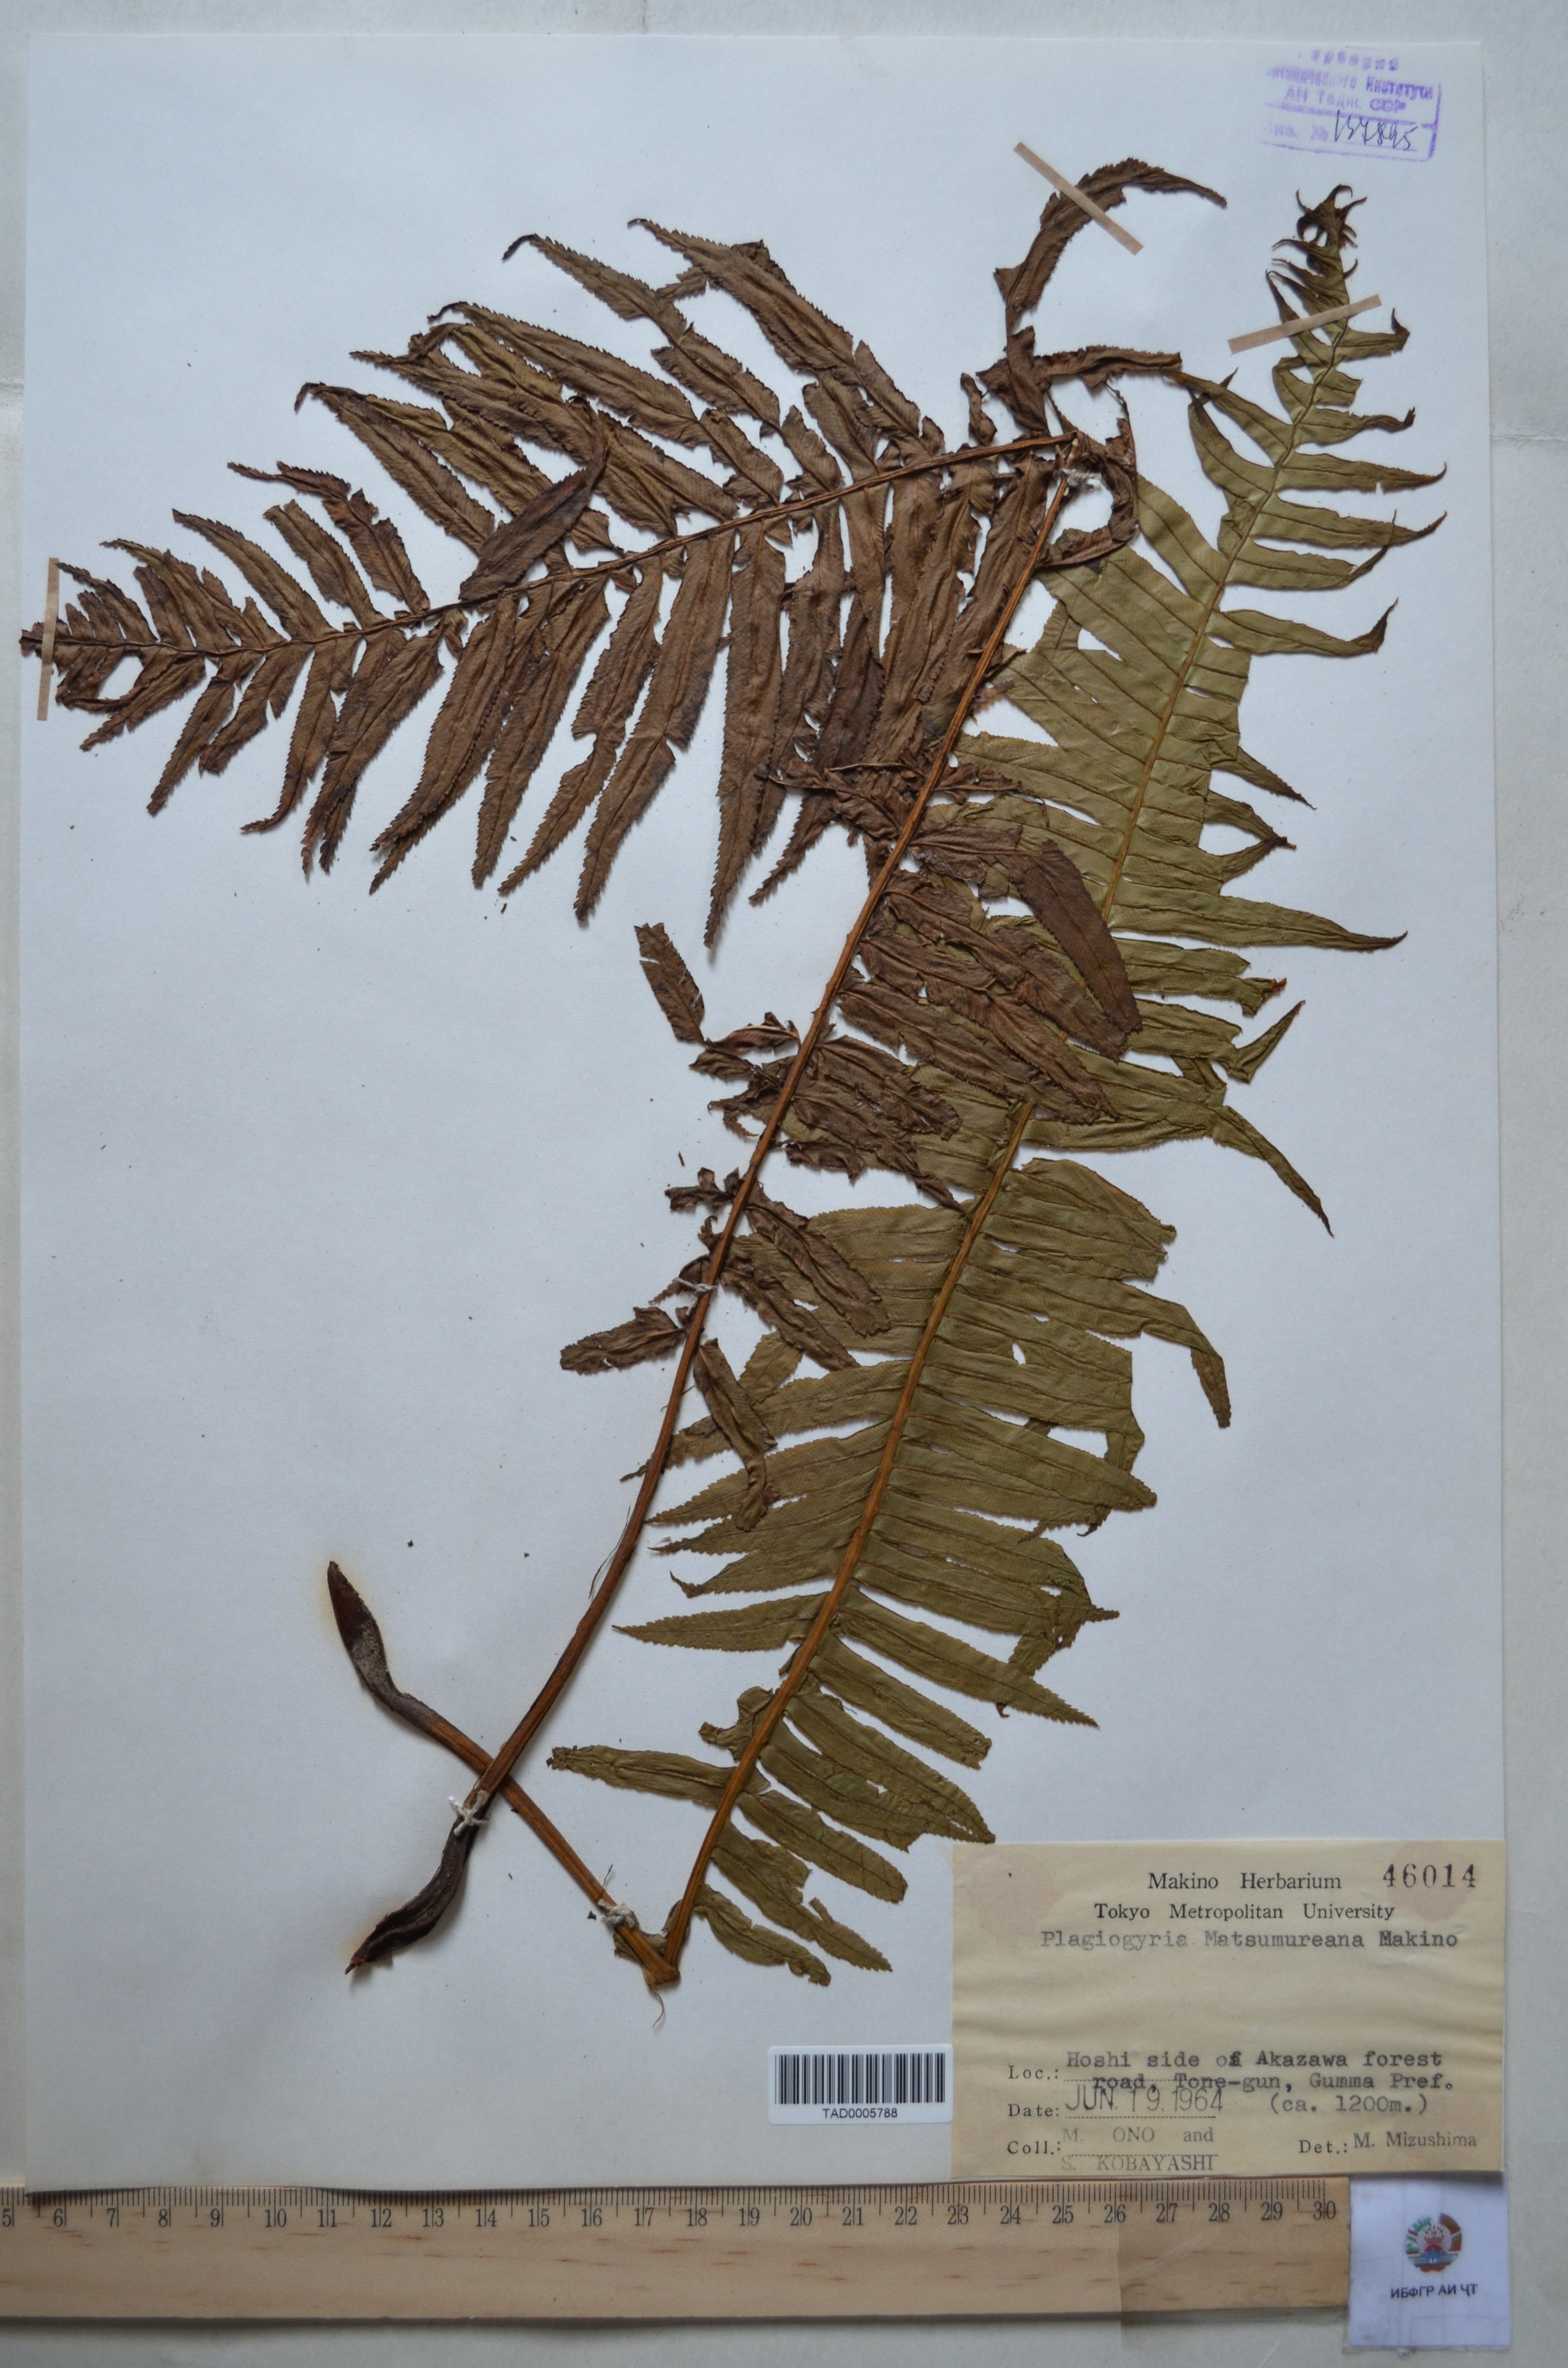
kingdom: Plantae
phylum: Tracheophyta
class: Polypodiopsida
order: Cyatheales
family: Plagiogyriaceae
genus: Plagiogyria
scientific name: Plagiogyria matsumureana
